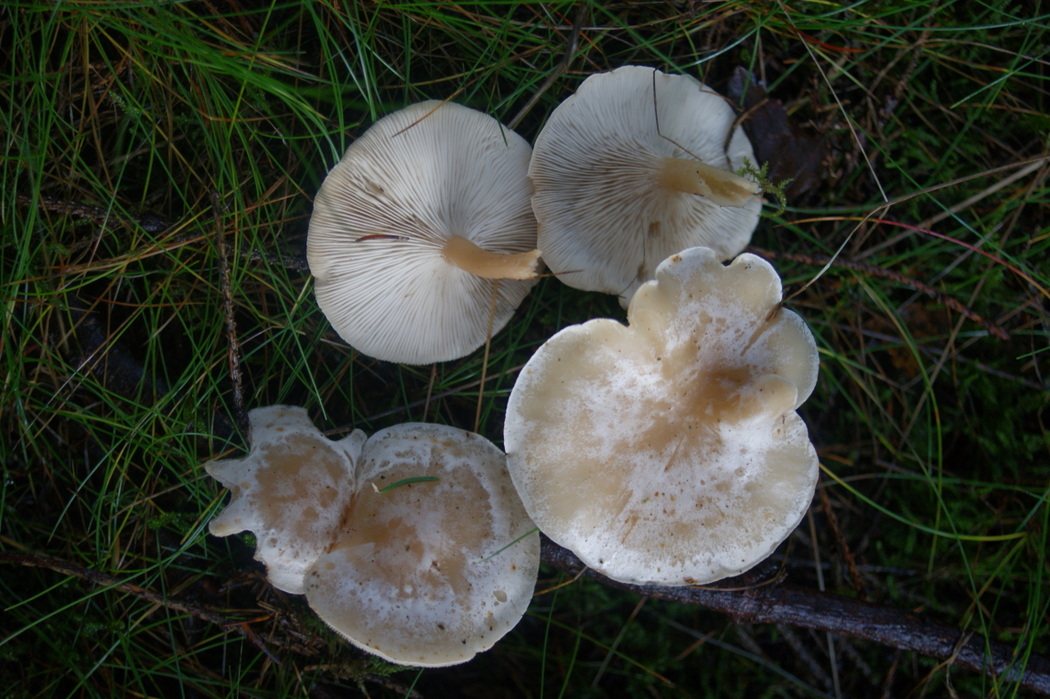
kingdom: Fungi
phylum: Basidiomycota
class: Agaricomycetes
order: Agaricales
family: Tricholomataceae
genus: Clitocybe
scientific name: Clitocybe phyllophila
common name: løv-tragthat
